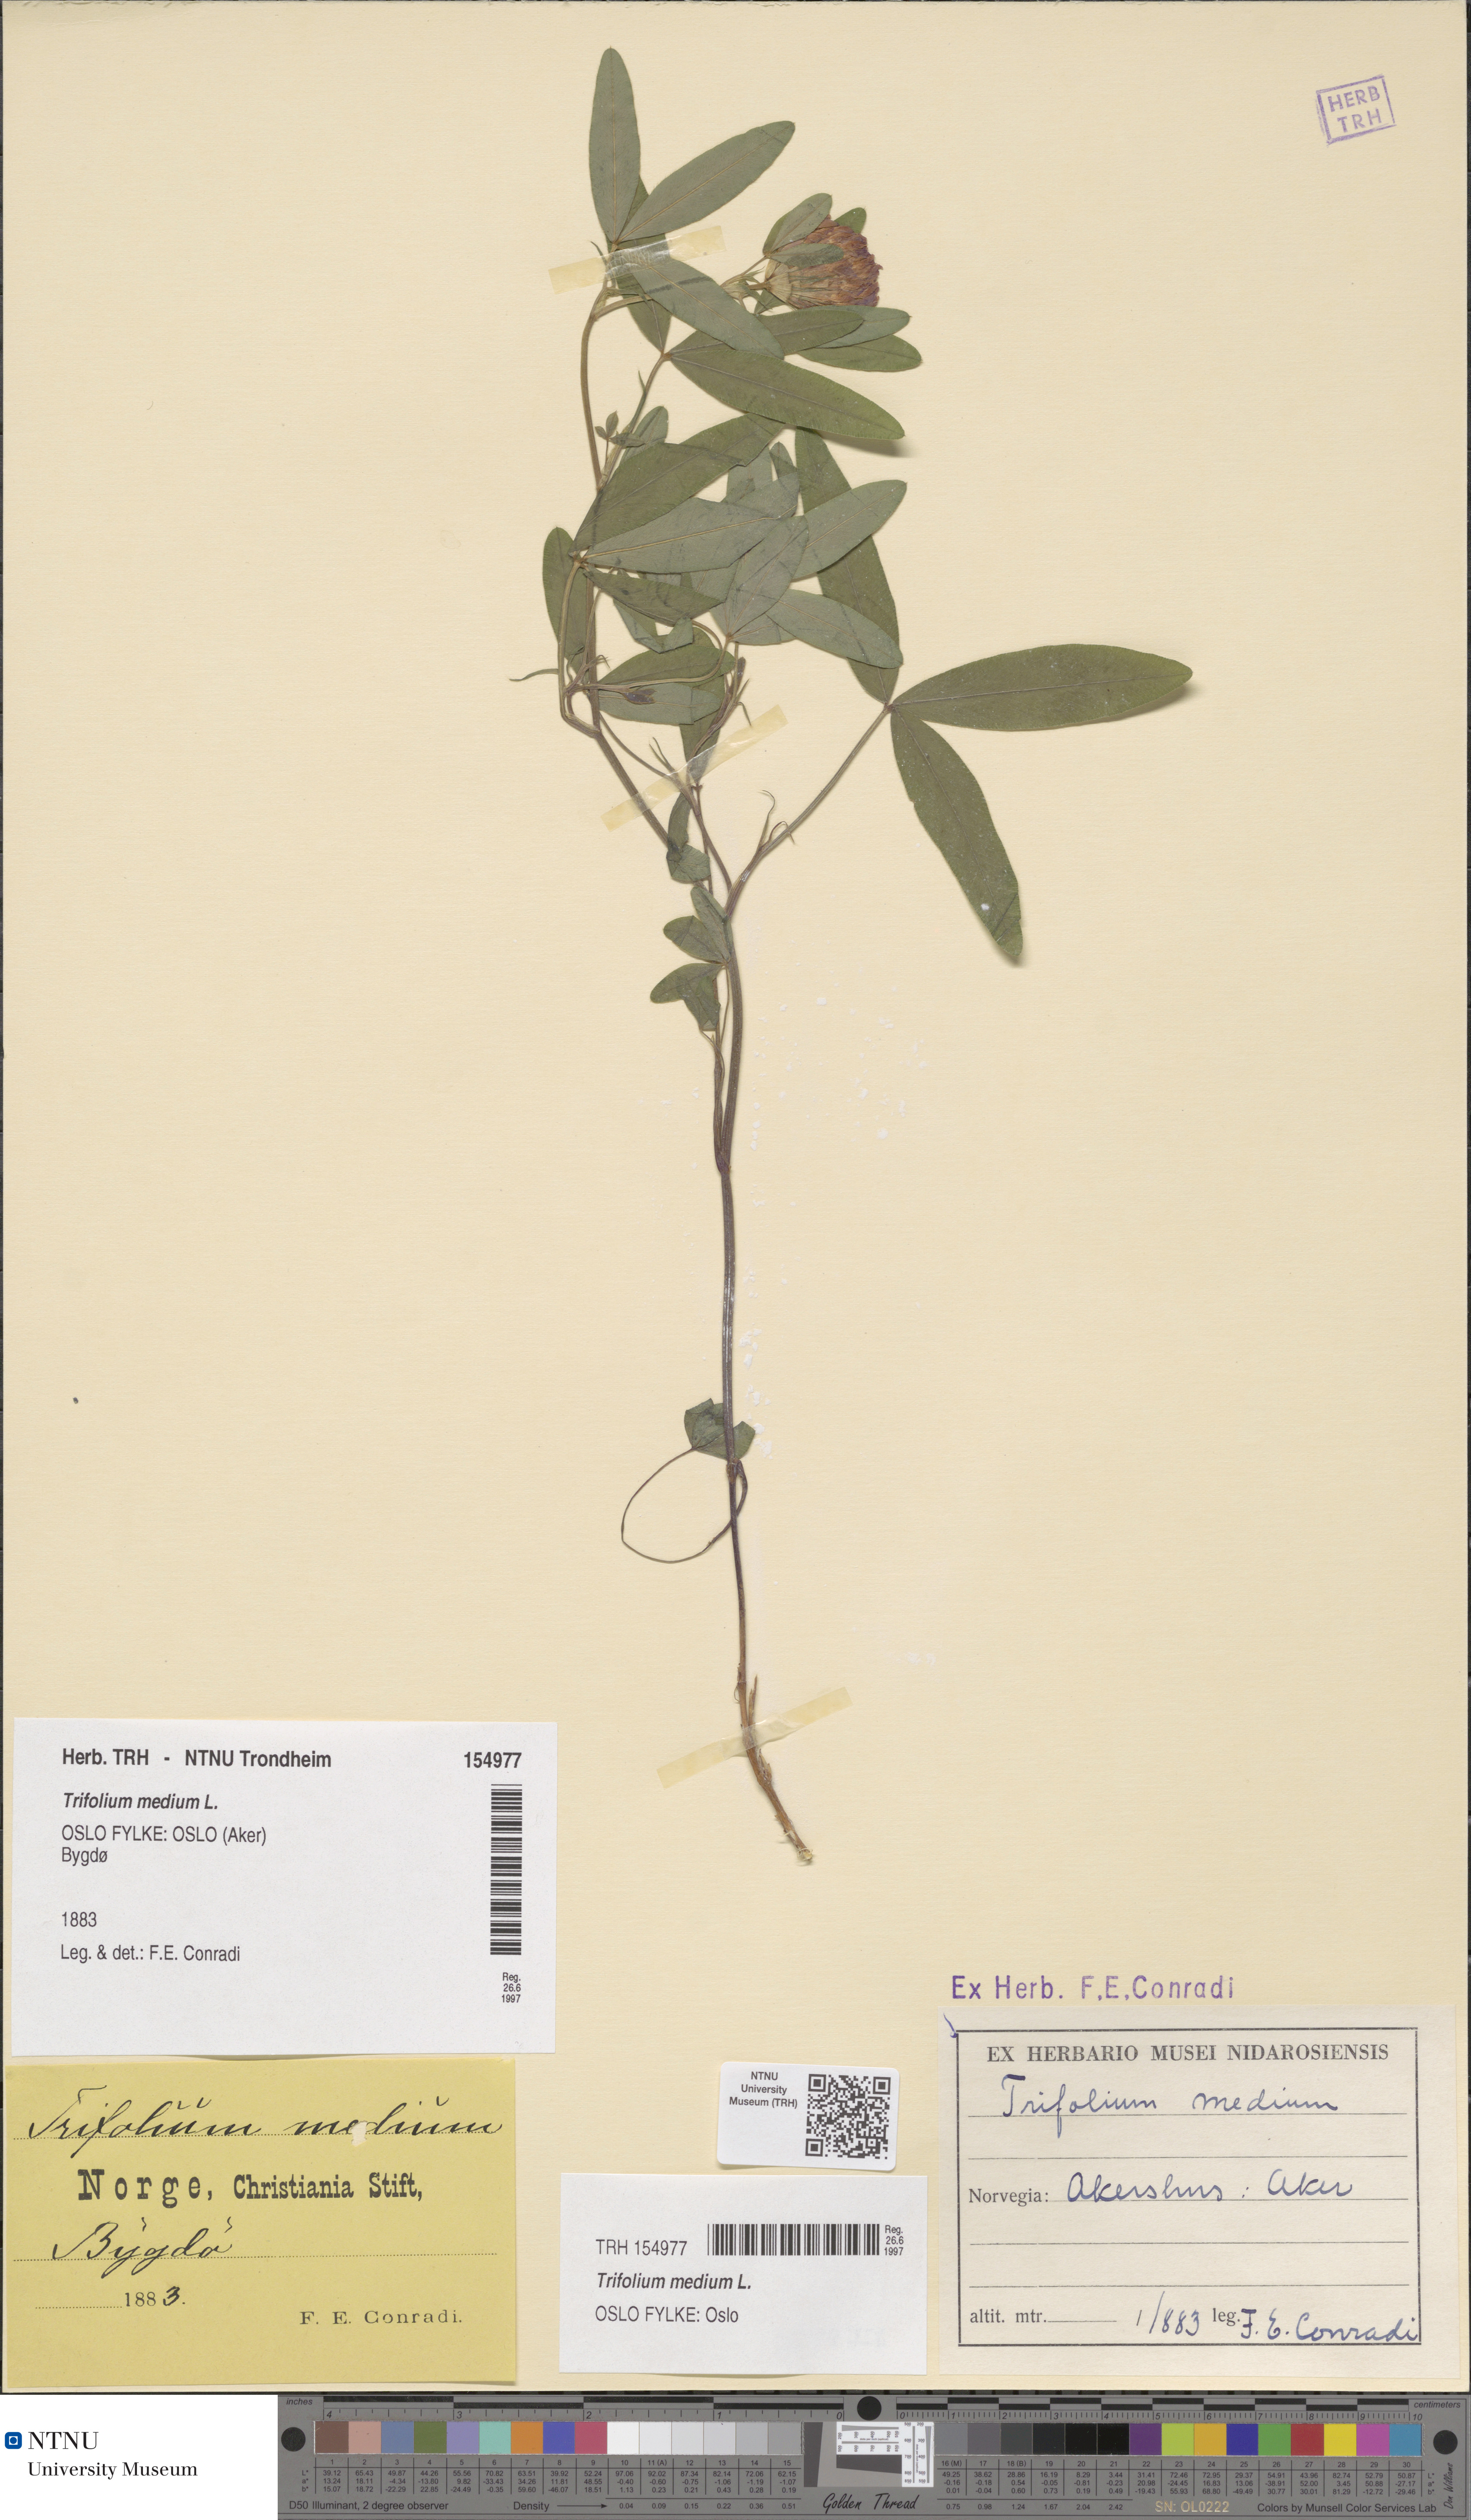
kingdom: Plantae
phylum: Tracheophyta
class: Magnoliopsida
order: Fabales
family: Fabaceae
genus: Trifolium
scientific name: Trifolium medium
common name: Zigzag clover
